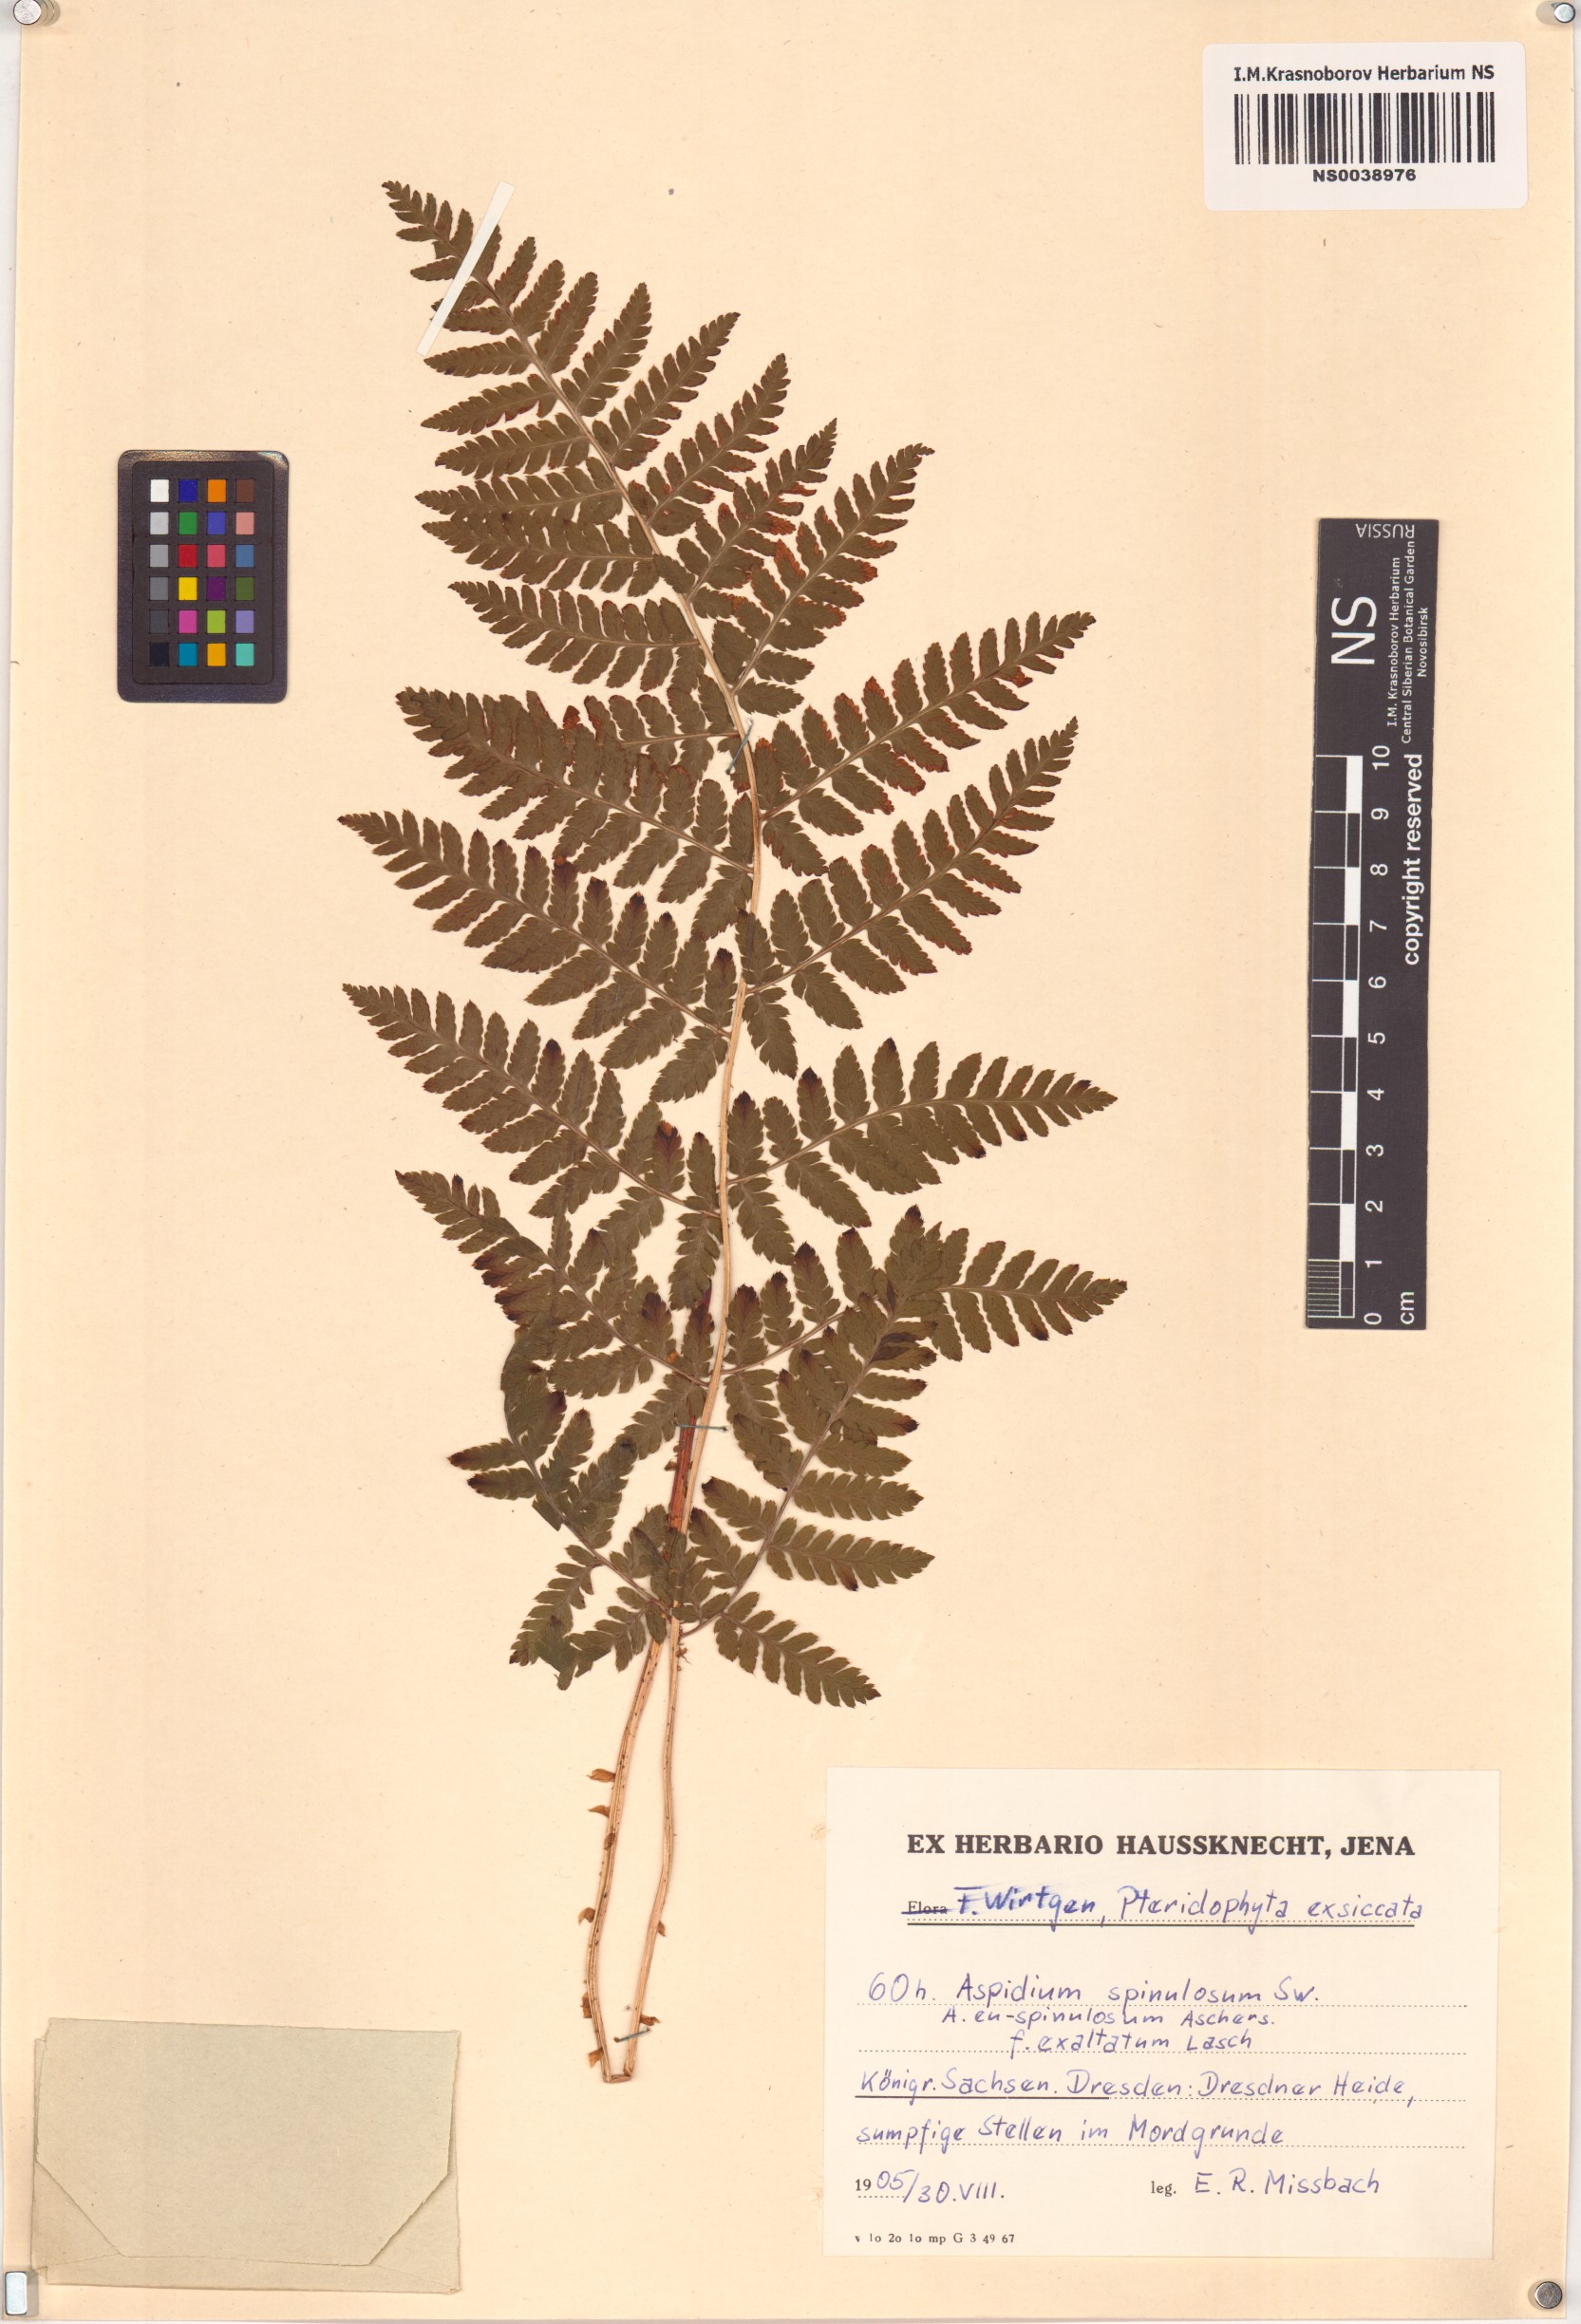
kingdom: Plantae
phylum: Tracheophyta
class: Polypodiopsida
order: Polypodiales
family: Dryopteridaceae
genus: Dryopteris
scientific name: Dryopteris carthusiana
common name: Narrow buckler-fern
